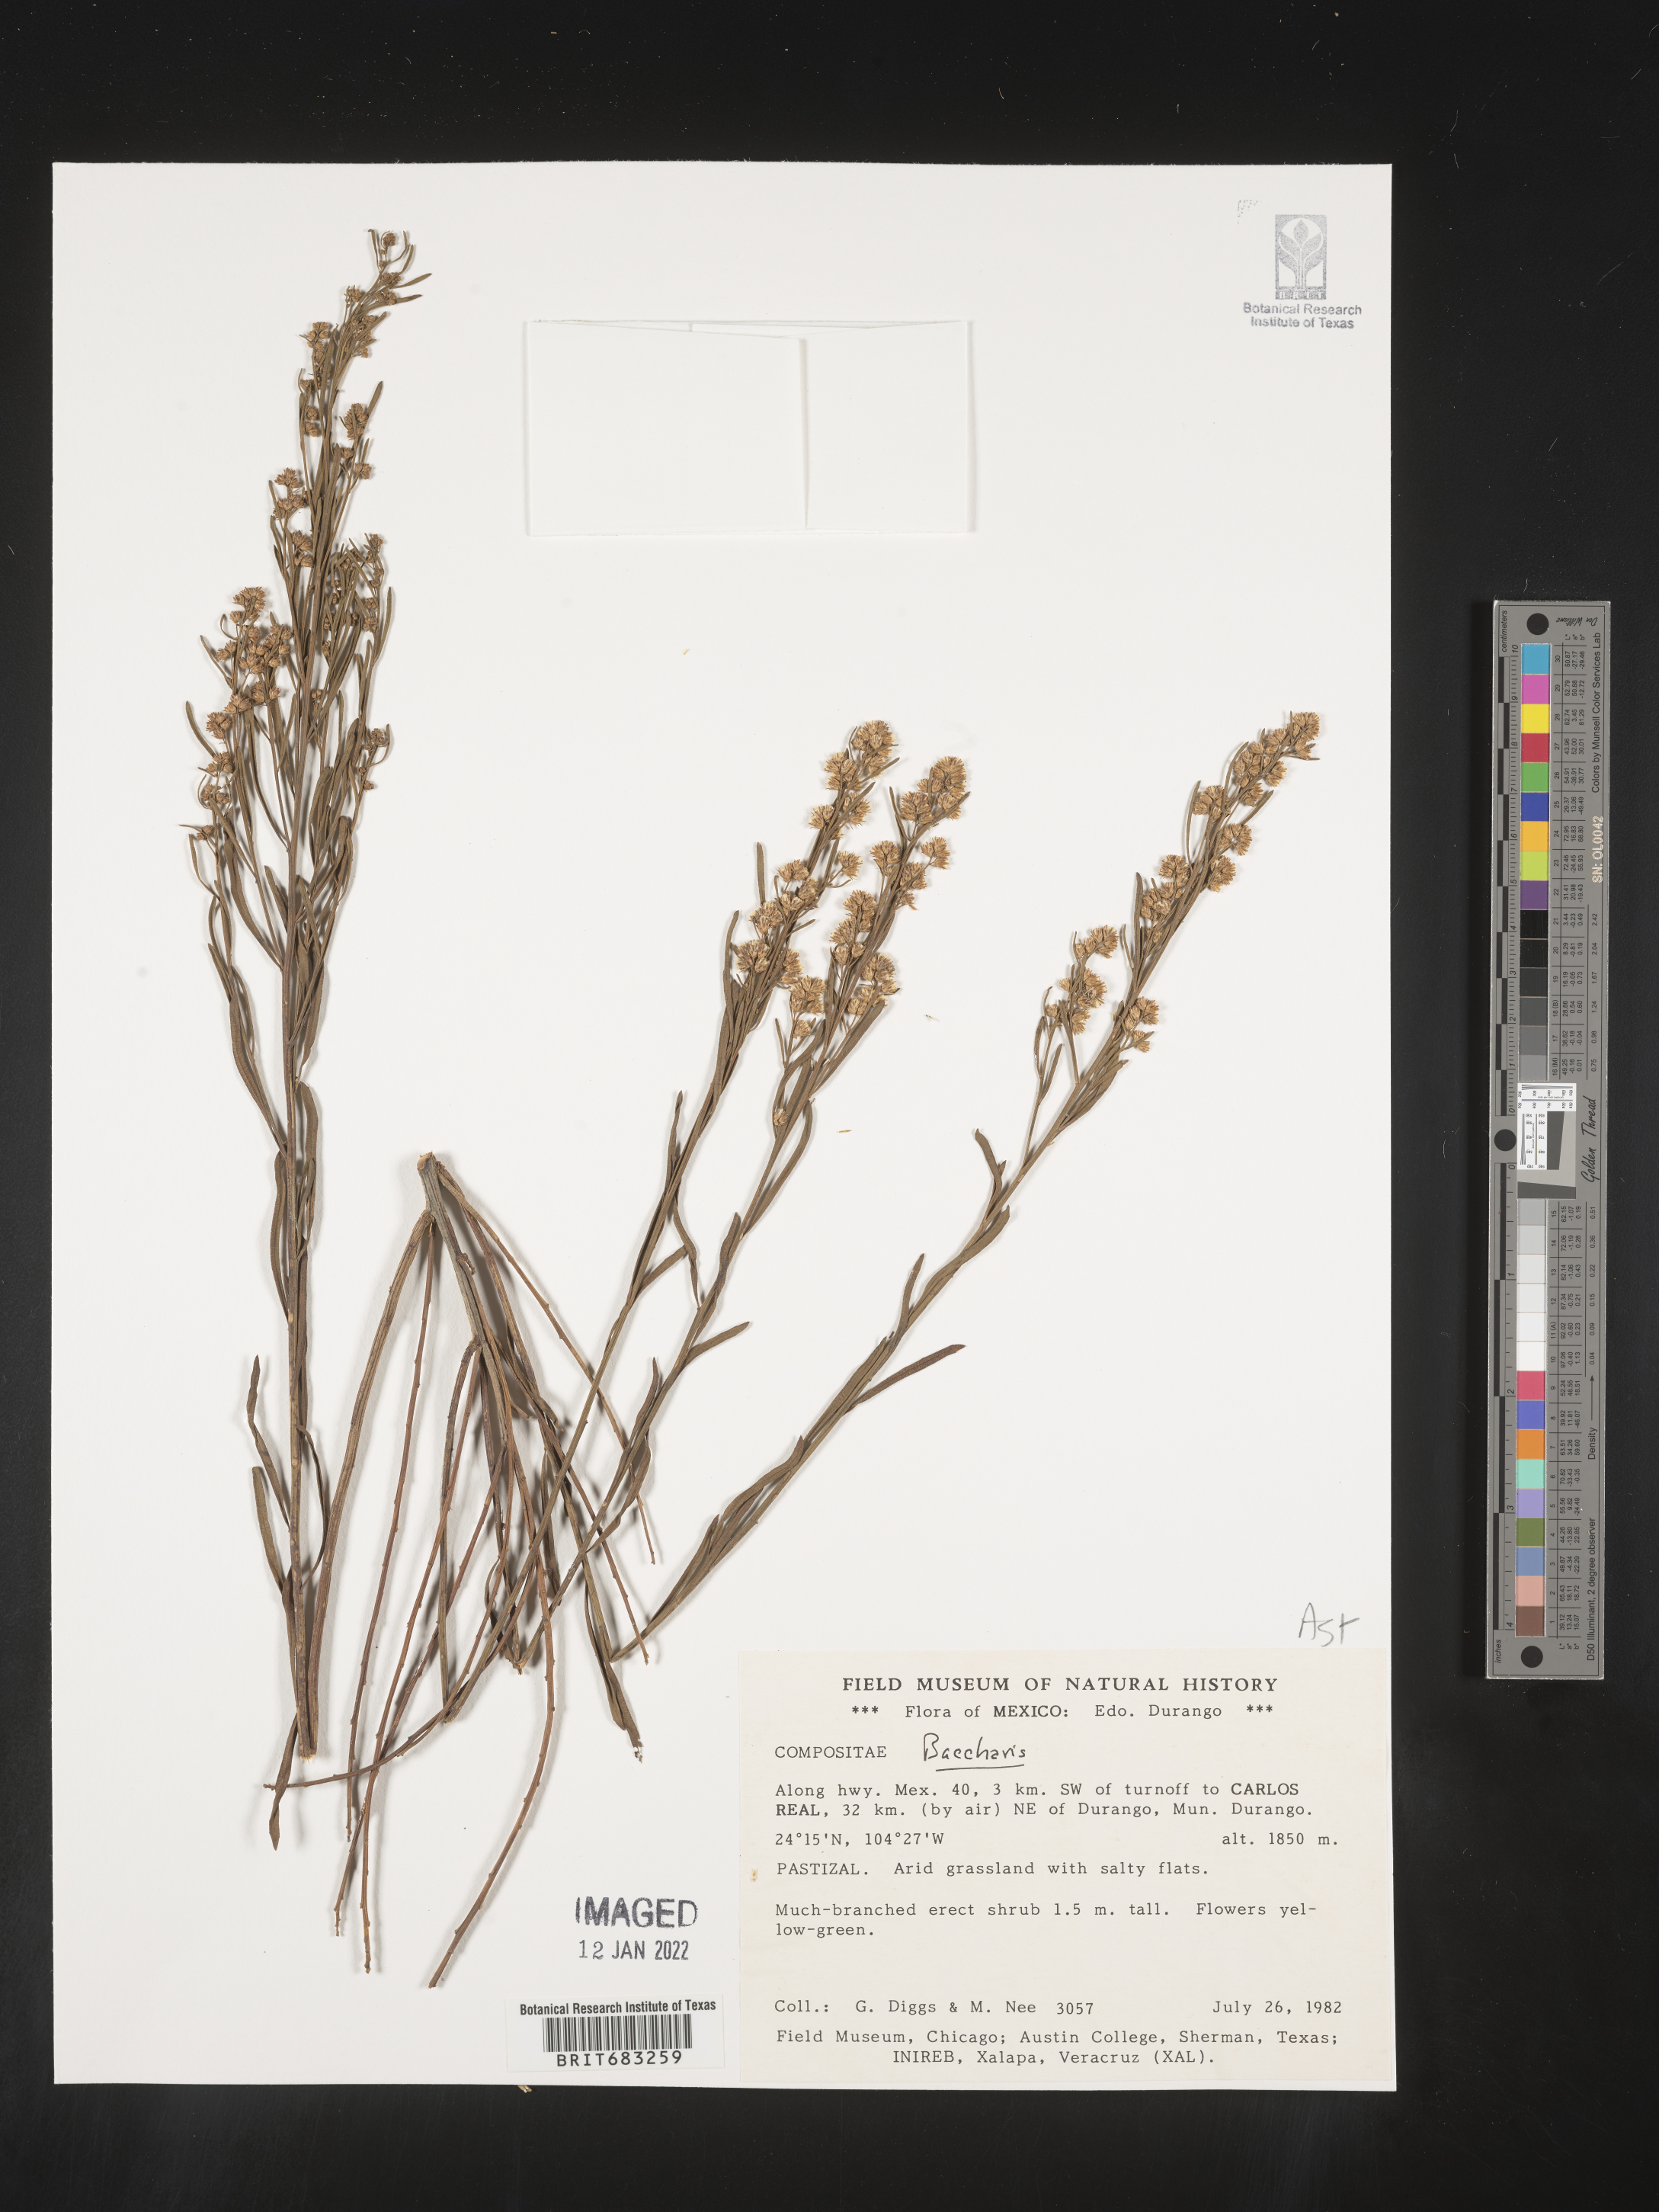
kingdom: Plantae
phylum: Tracheophyta
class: Magnoliopsida
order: Asterales
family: Asteraceae
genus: Baccharis
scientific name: Baccharis neglecta
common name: Roosevelt-weed
